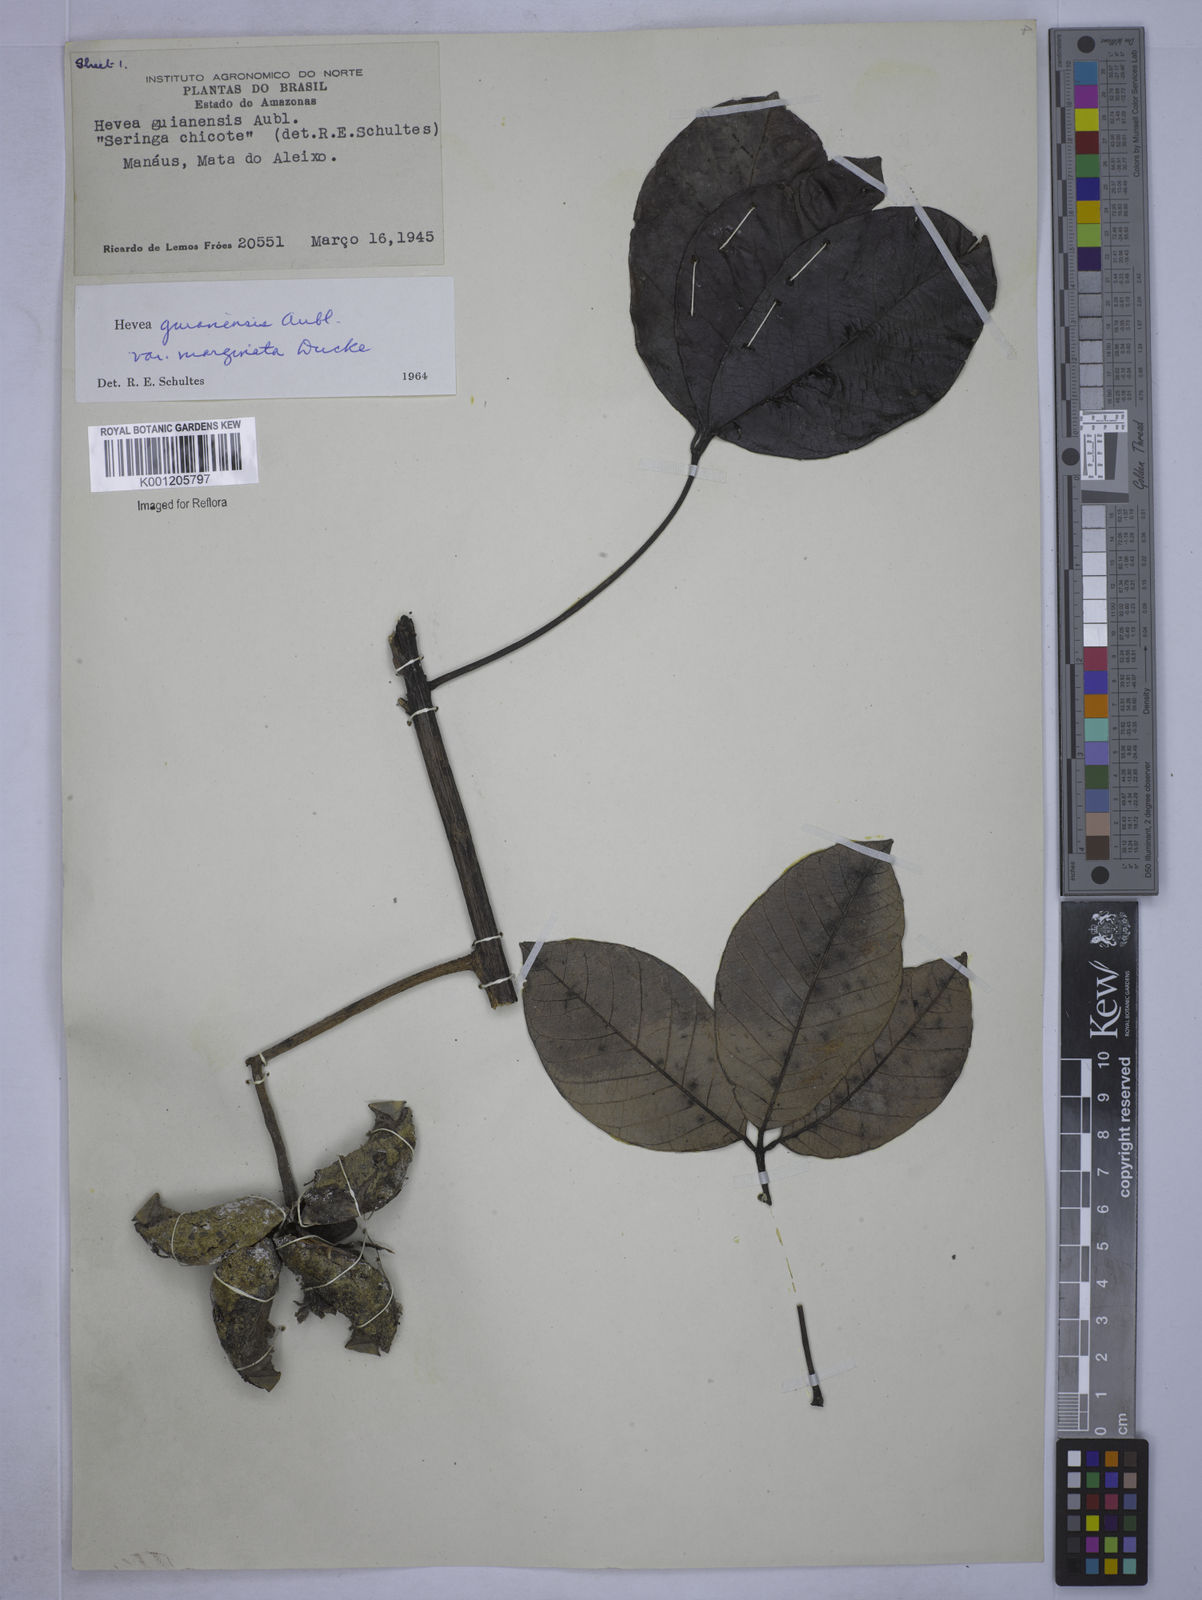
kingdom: Plantae
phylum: Tracheophyta
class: Magnoliopsida
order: Malpighiales
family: Euphorbiaceae
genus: Hevea
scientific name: Hevea guianensis
